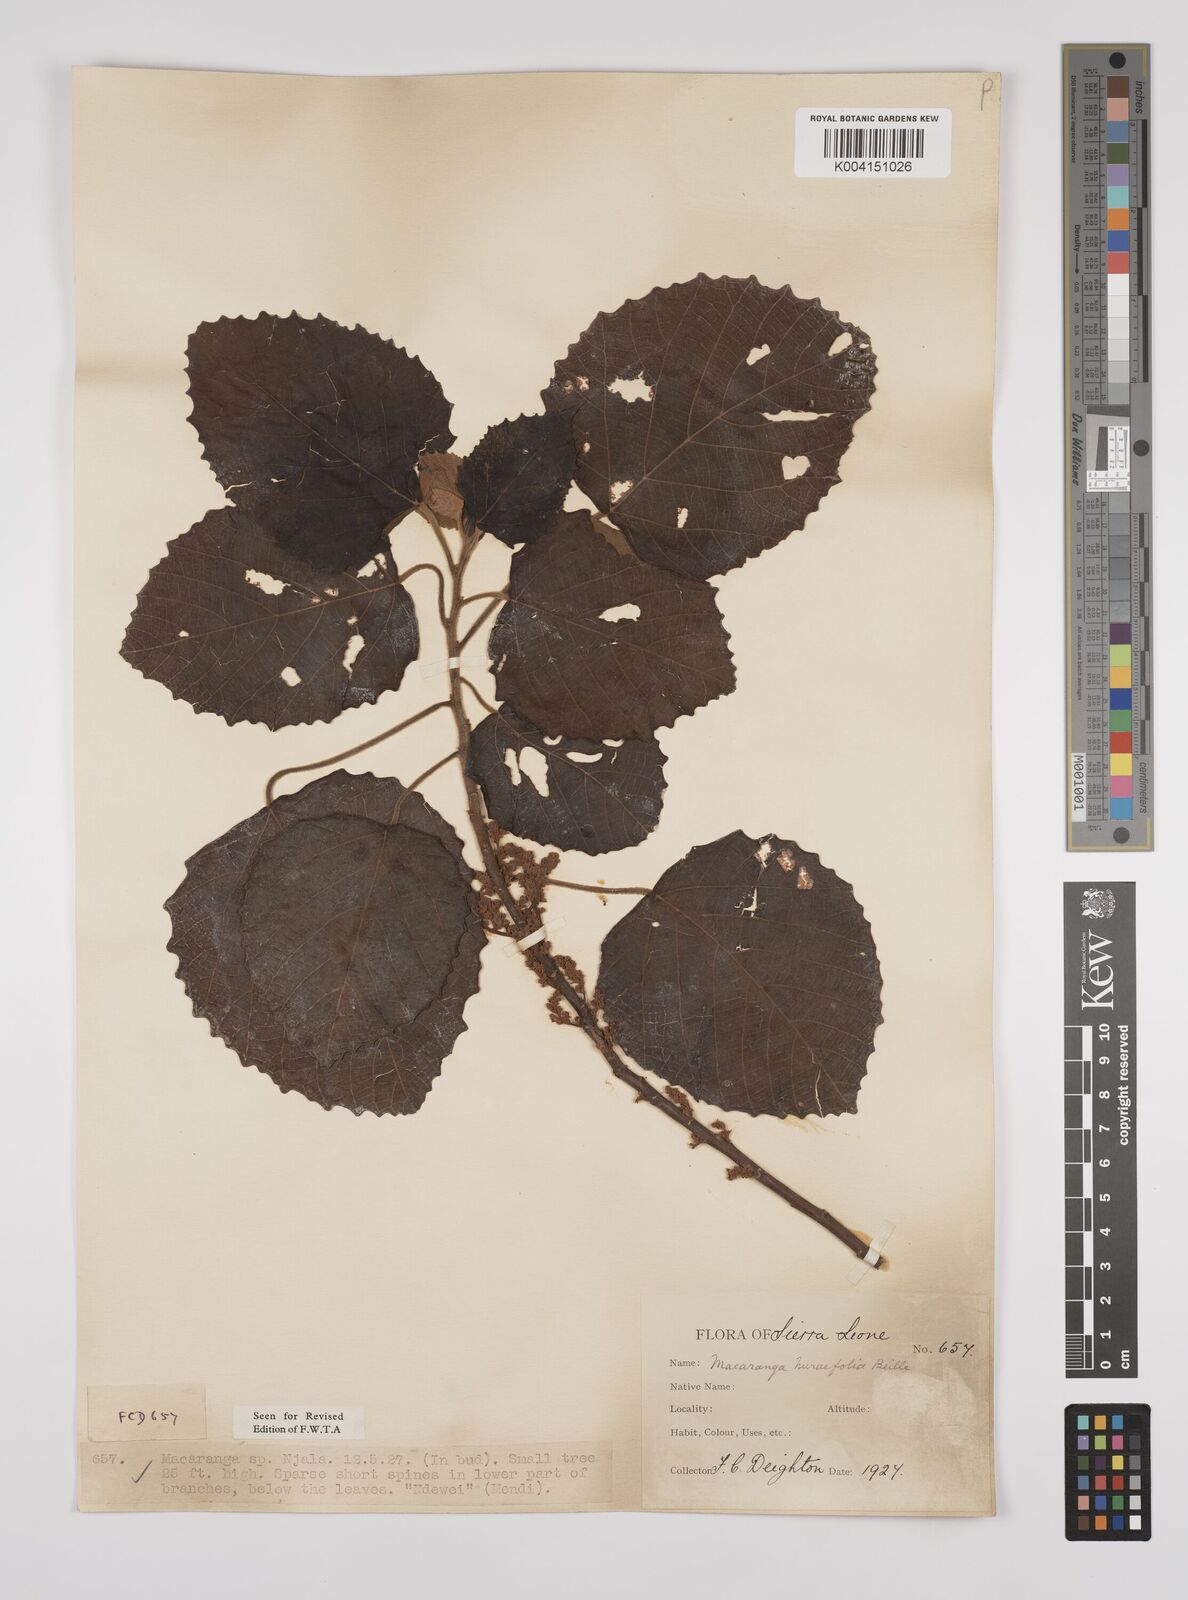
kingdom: Plantae
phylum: Tracheophyta
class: Magnoliopsida
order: Malpighiales
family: Euphorbiaceae
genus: Macaranga
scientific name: Macaranga hurifolia
